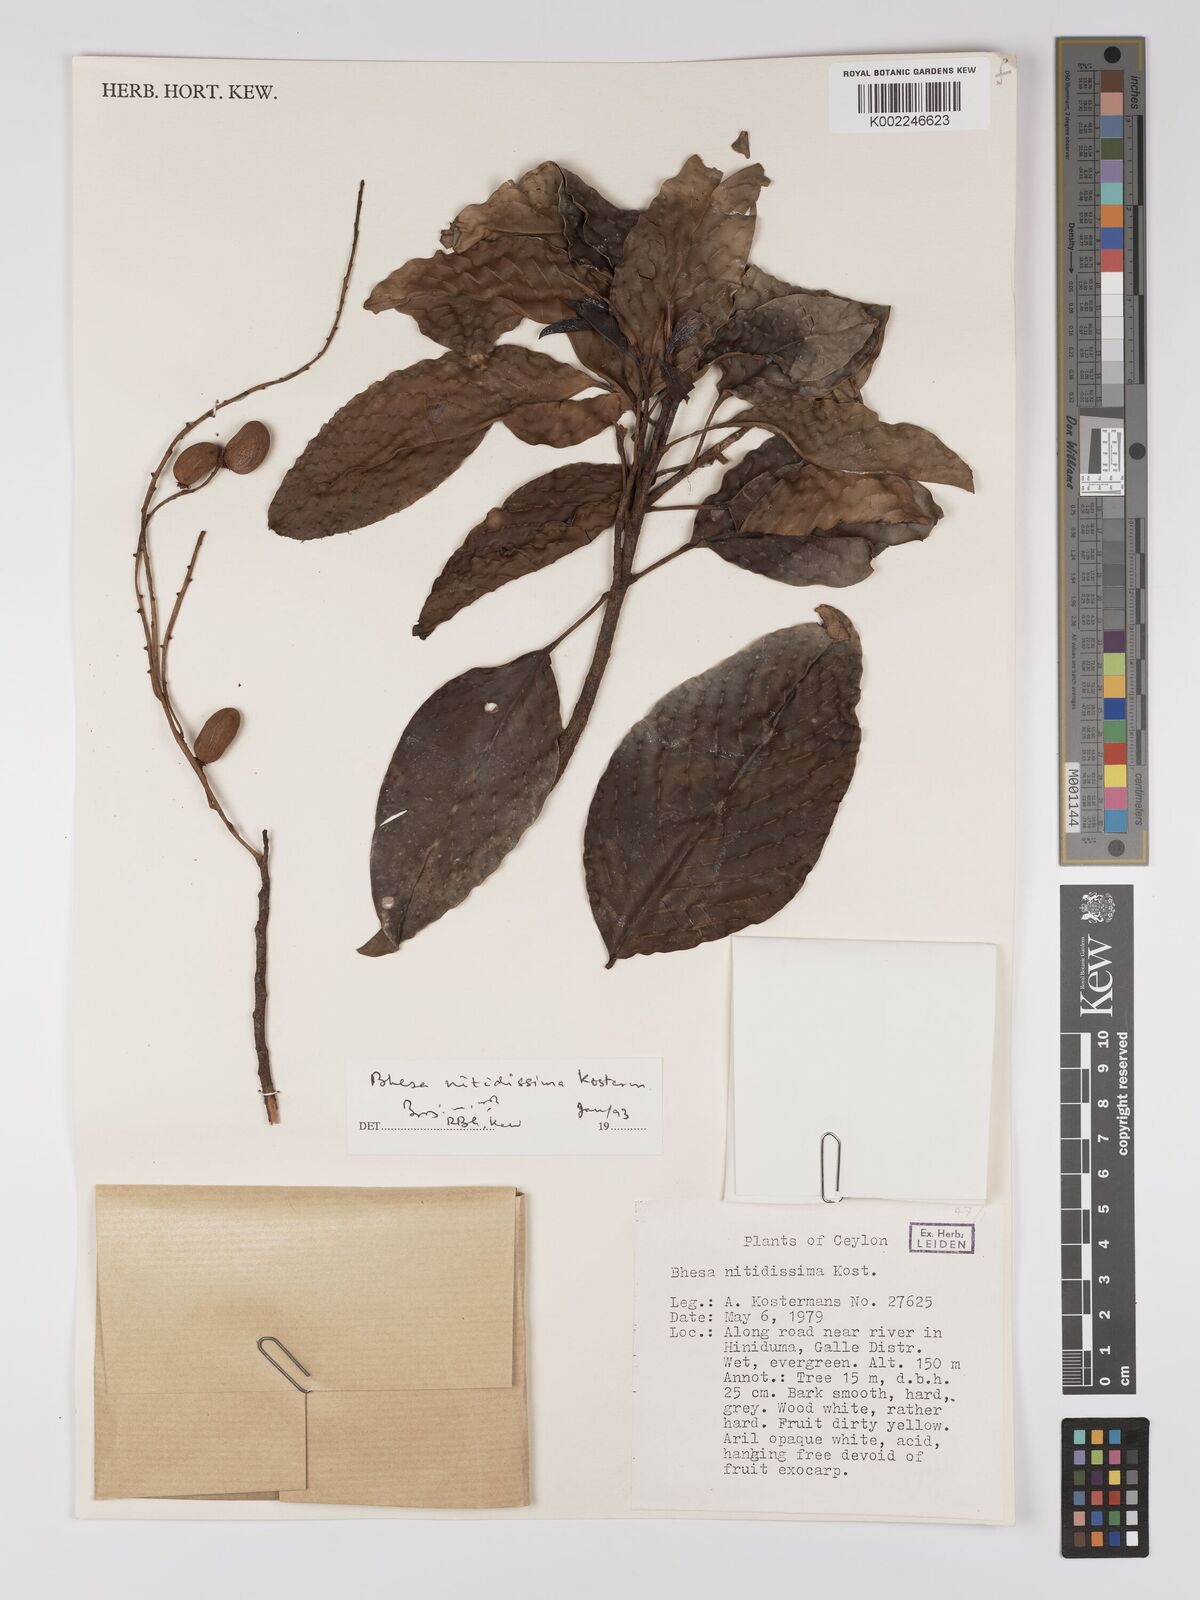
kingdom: Plantae
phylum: Tracheophyta
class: Magnoliopsida
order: Malpighiales
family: Centroplacaceae
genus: Bhesa
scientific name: Bhesa nitidissima
